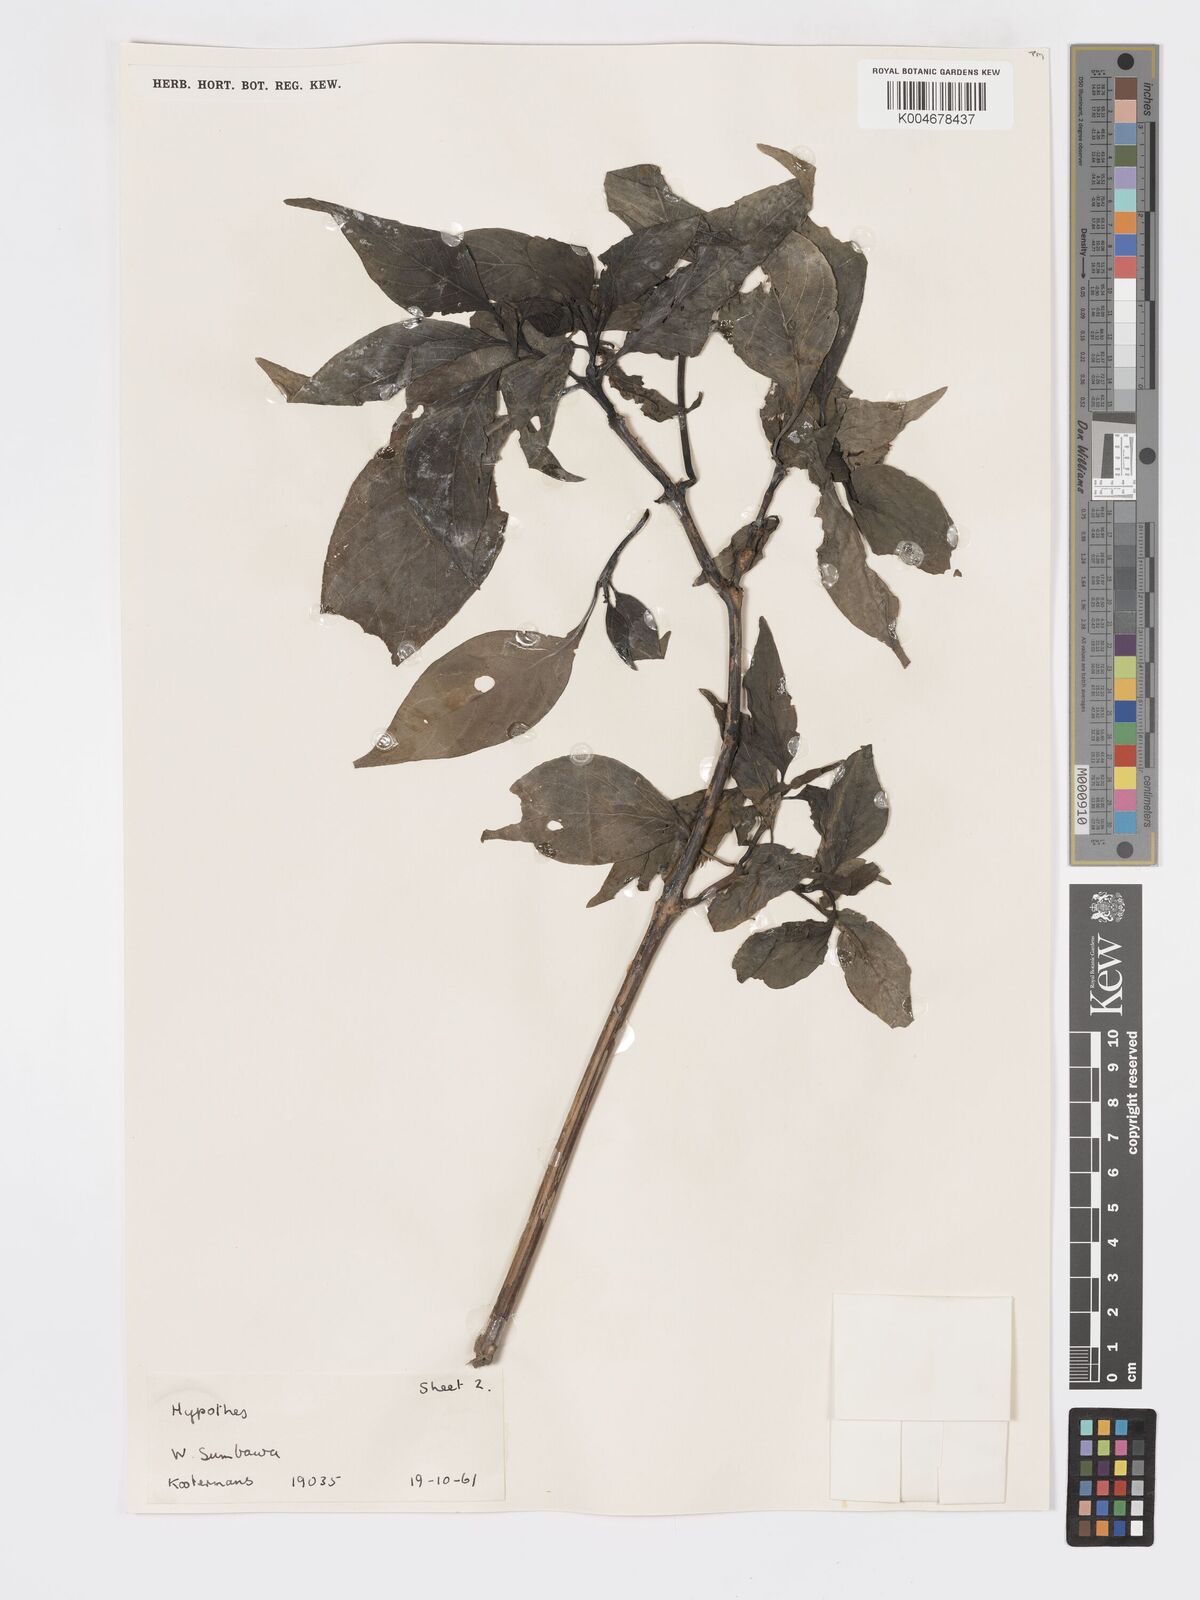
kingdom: Plantae
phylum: Tracheophyta
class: Magnoliopsida
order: Lamiales
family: Acanthaceae
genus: Hypoestes
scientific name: Hypoestes
